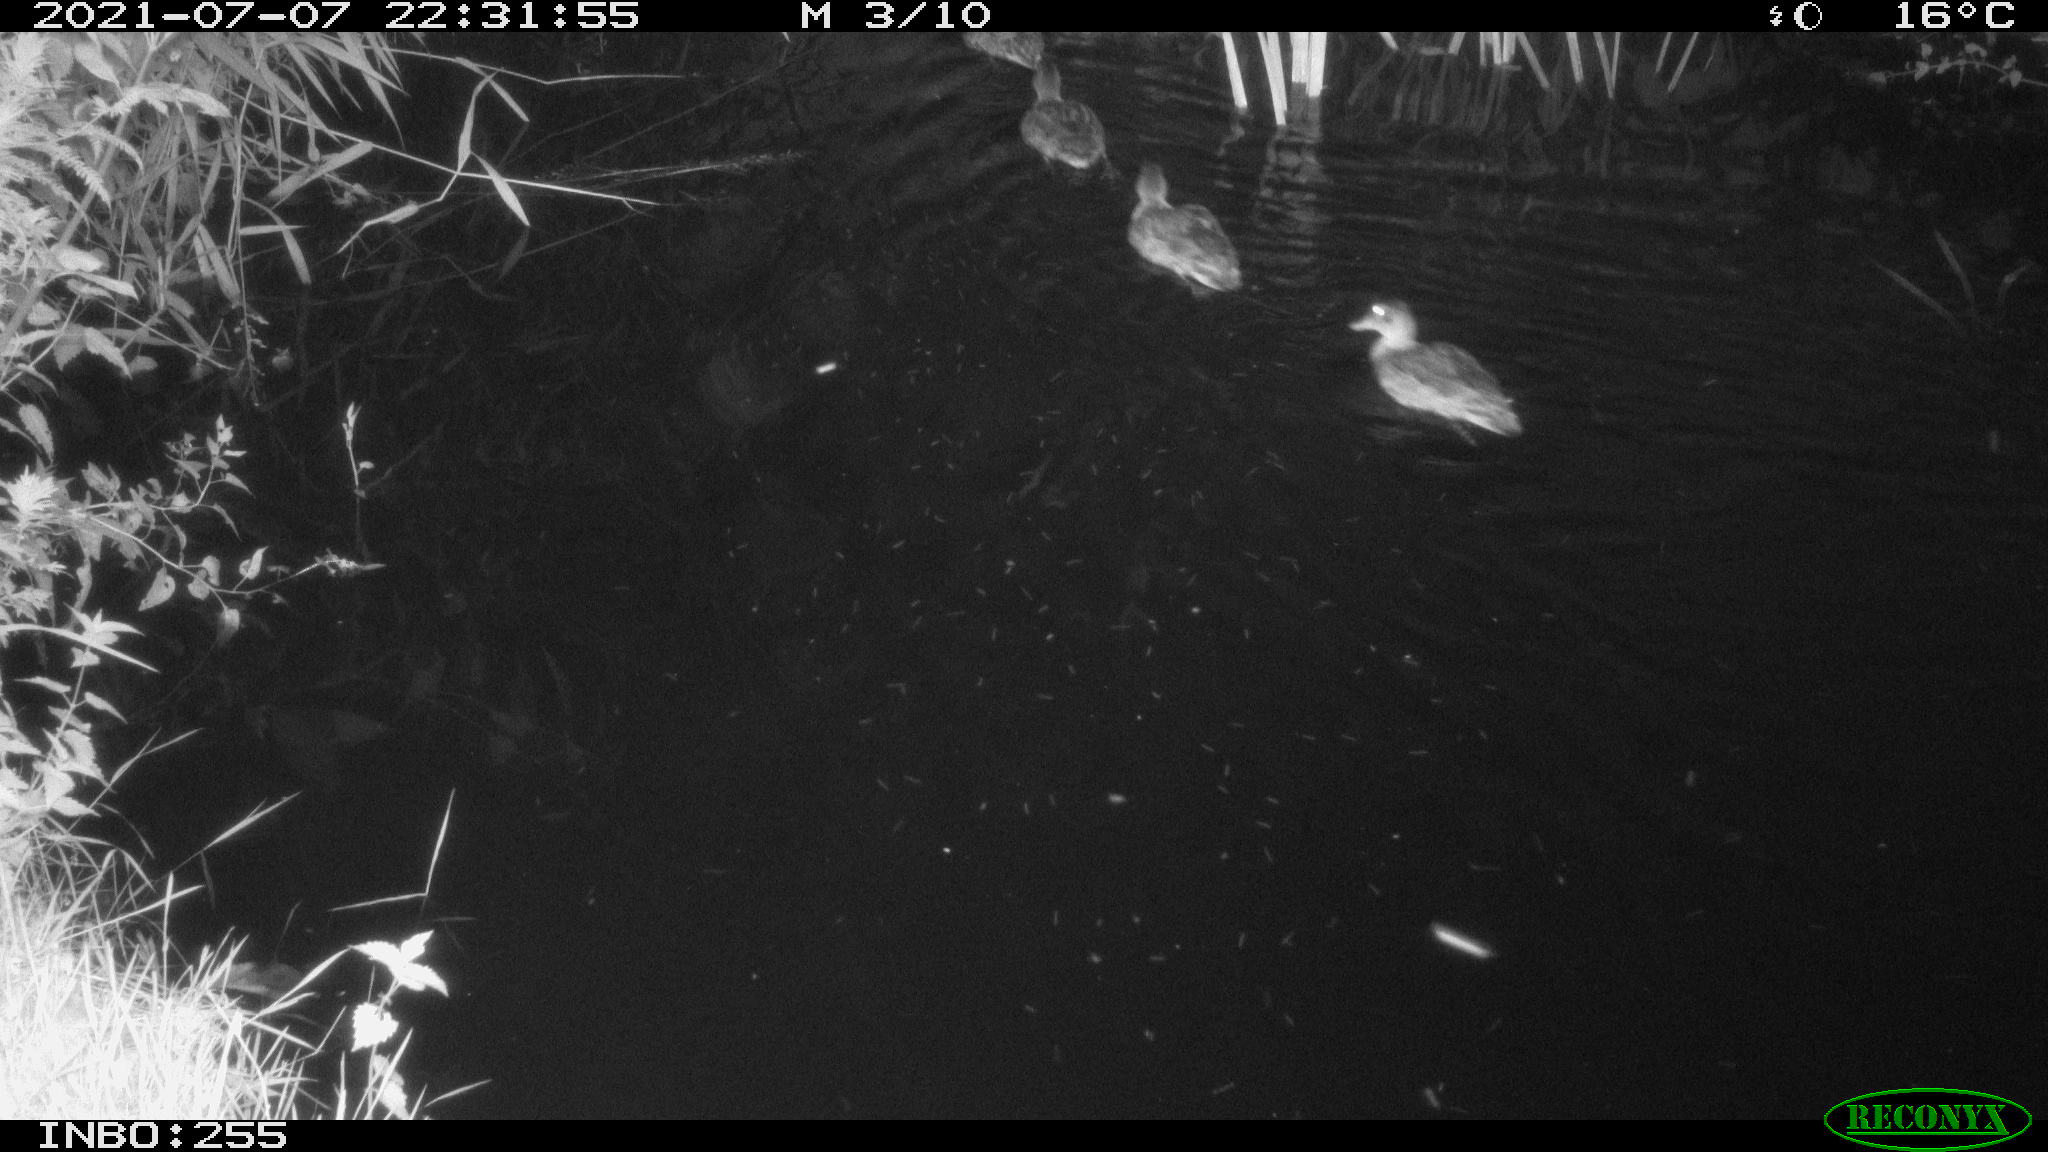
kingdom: Animalia
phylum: Chordata
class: Aves
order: Anseriformes
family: Anatidae
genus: Anas
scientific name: Anas platyrhynchos
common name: Mallard
